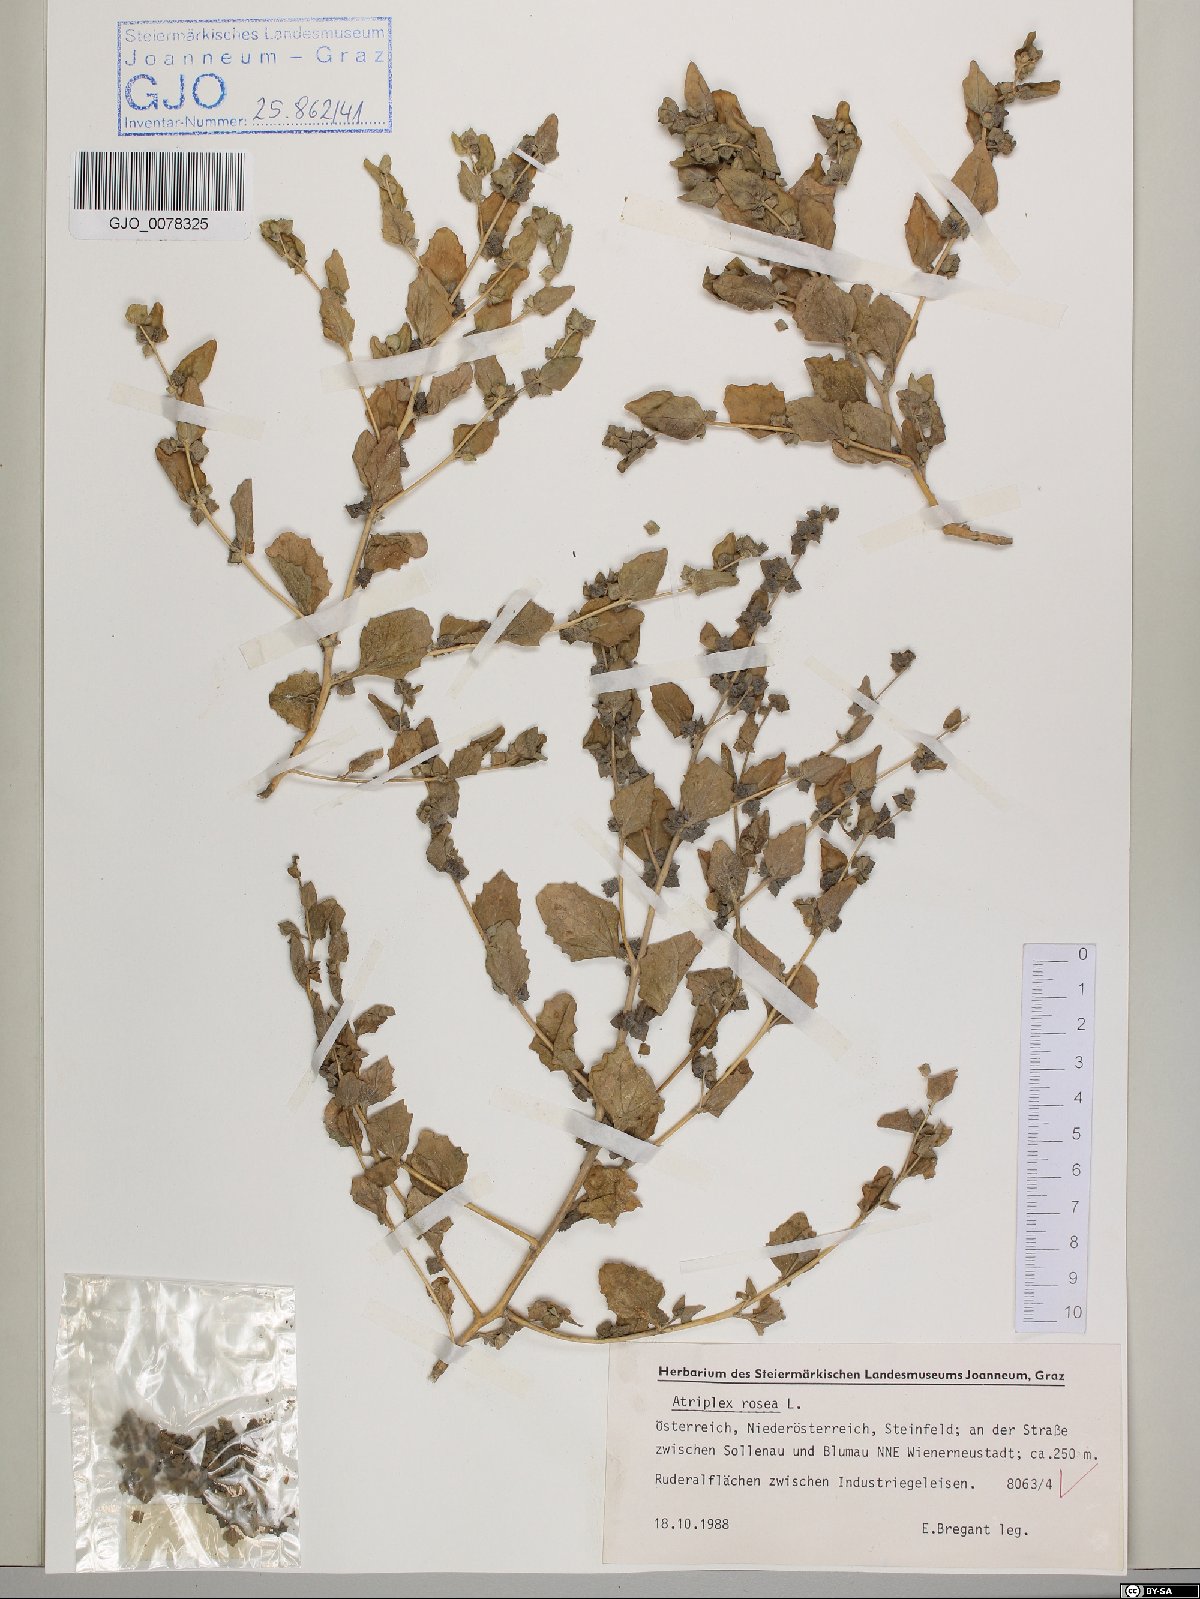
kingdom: Plantae
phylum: Tracheophyta
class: Magnoliopsida
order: Caryophyllales
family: Amaranthaceae
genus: Atriplex
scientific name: Atriplex rosea
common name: Tumbling saltweed
